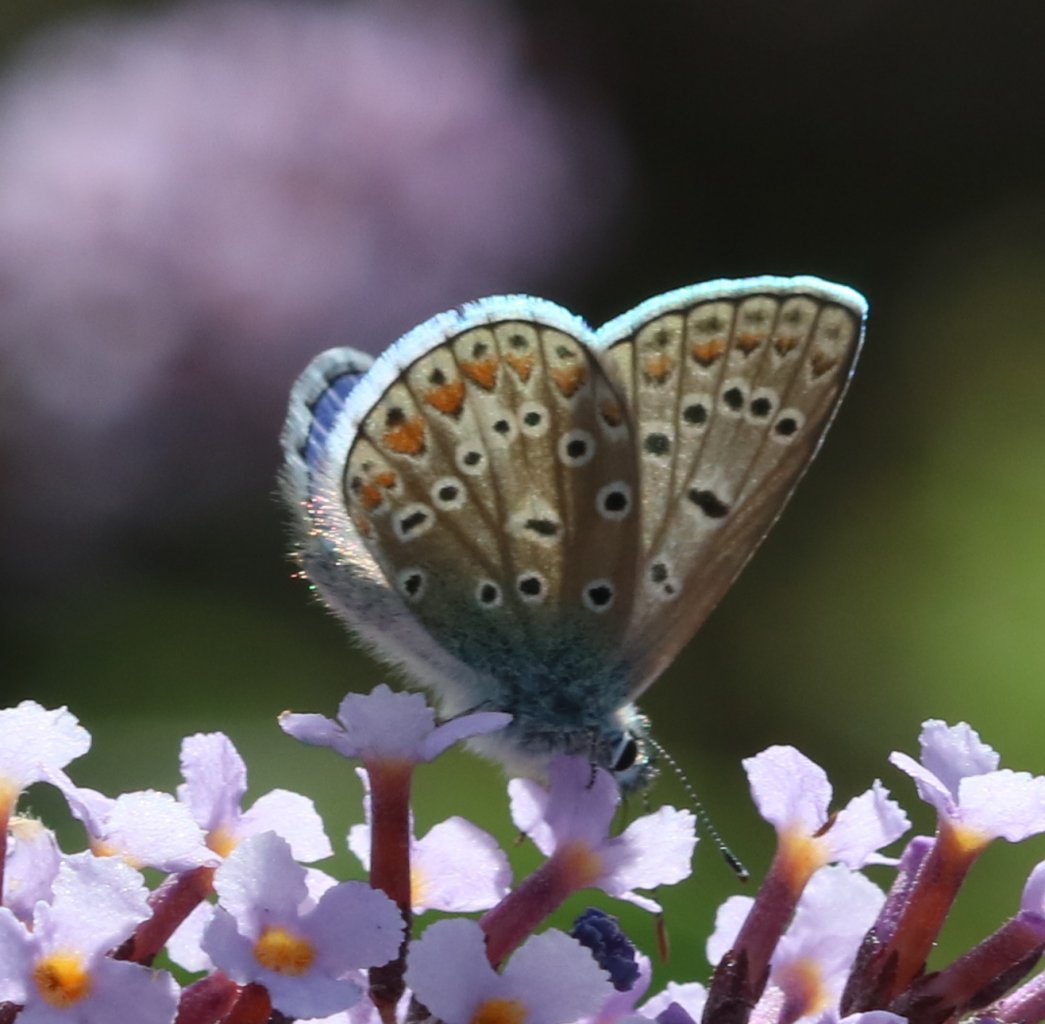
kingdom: Animalia
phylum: Arthropoda
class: Insecta
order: Lepidoptera
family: Lycaenidae
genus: Polyommatus
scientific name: Polyommatus icarus
